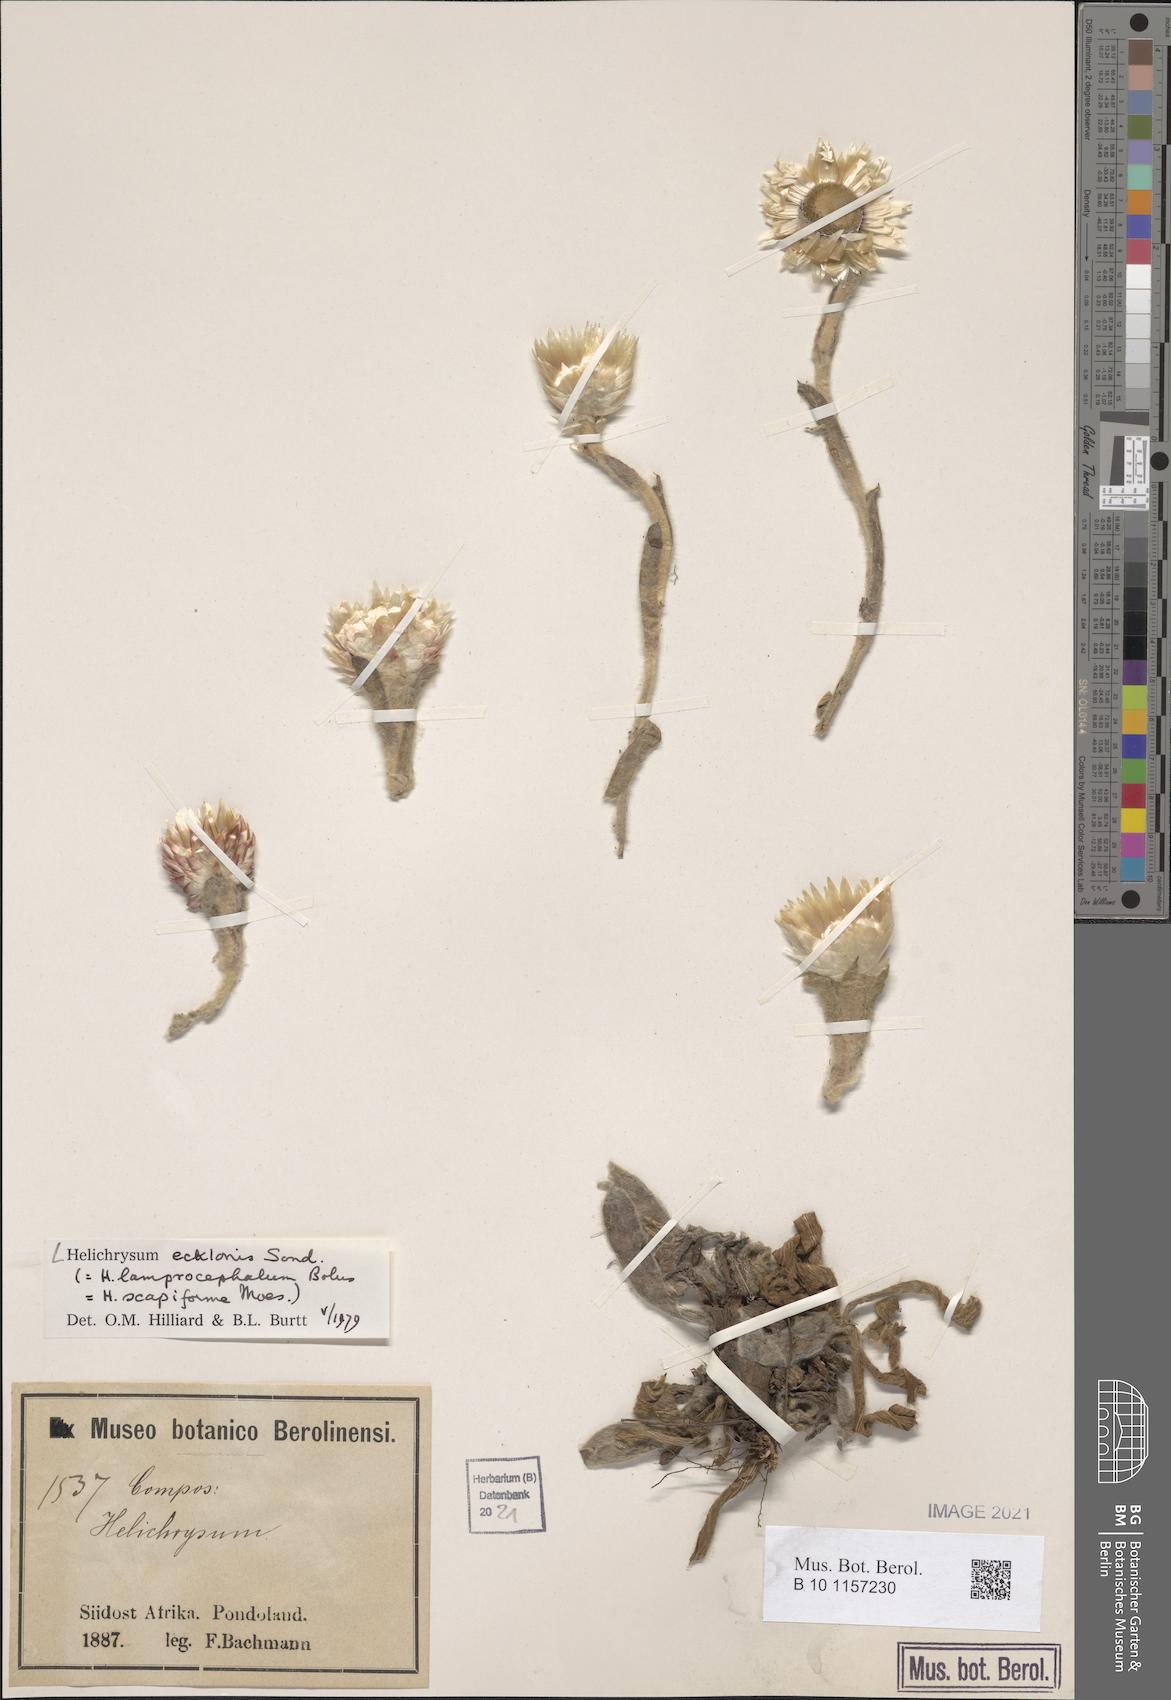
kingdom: Plantae
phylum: Tracheophyta
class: Magnoliopsida
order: Asterales
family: Asteraceae
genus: Helichrysum
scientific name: Helichrysum ecklonis
